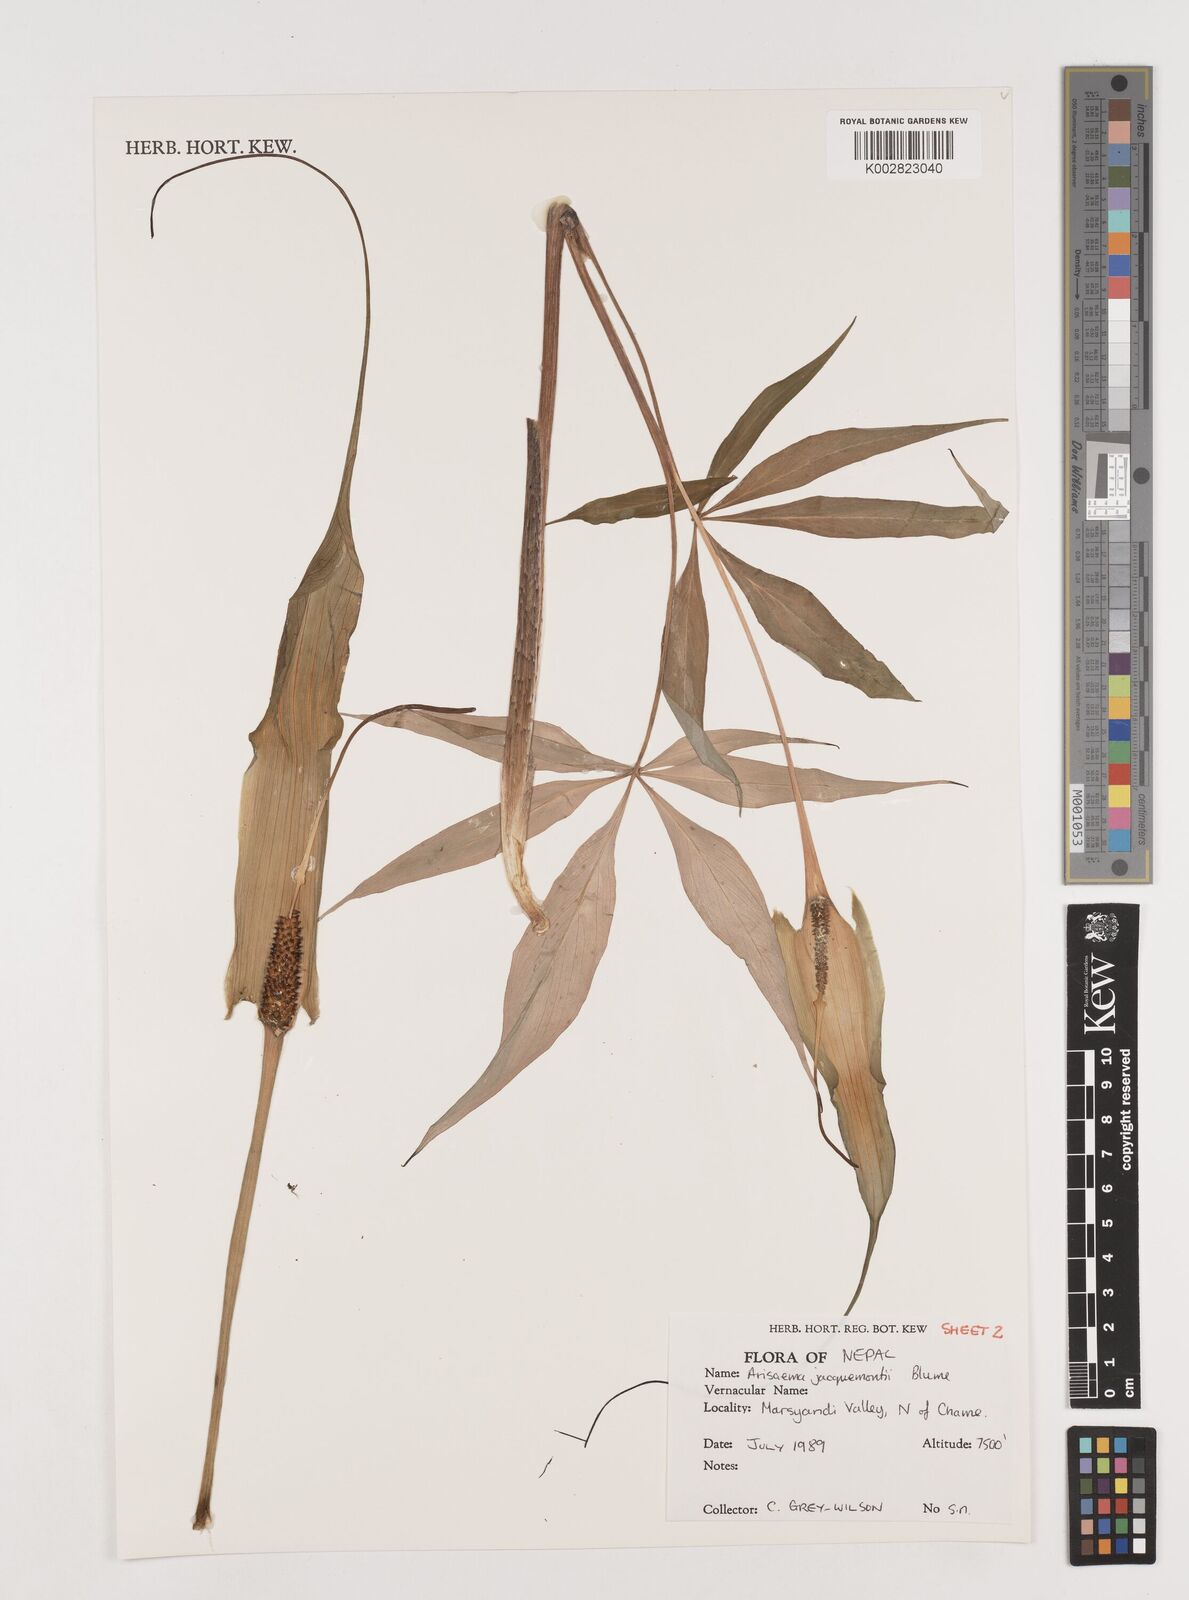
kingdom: Plantae
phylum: Tracheophyta
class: Liliopsida
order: Alismatales
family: Araceae
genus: Arisaema
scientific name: Arisaema jacquemontii
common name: Jacquemont's cobra-lily
